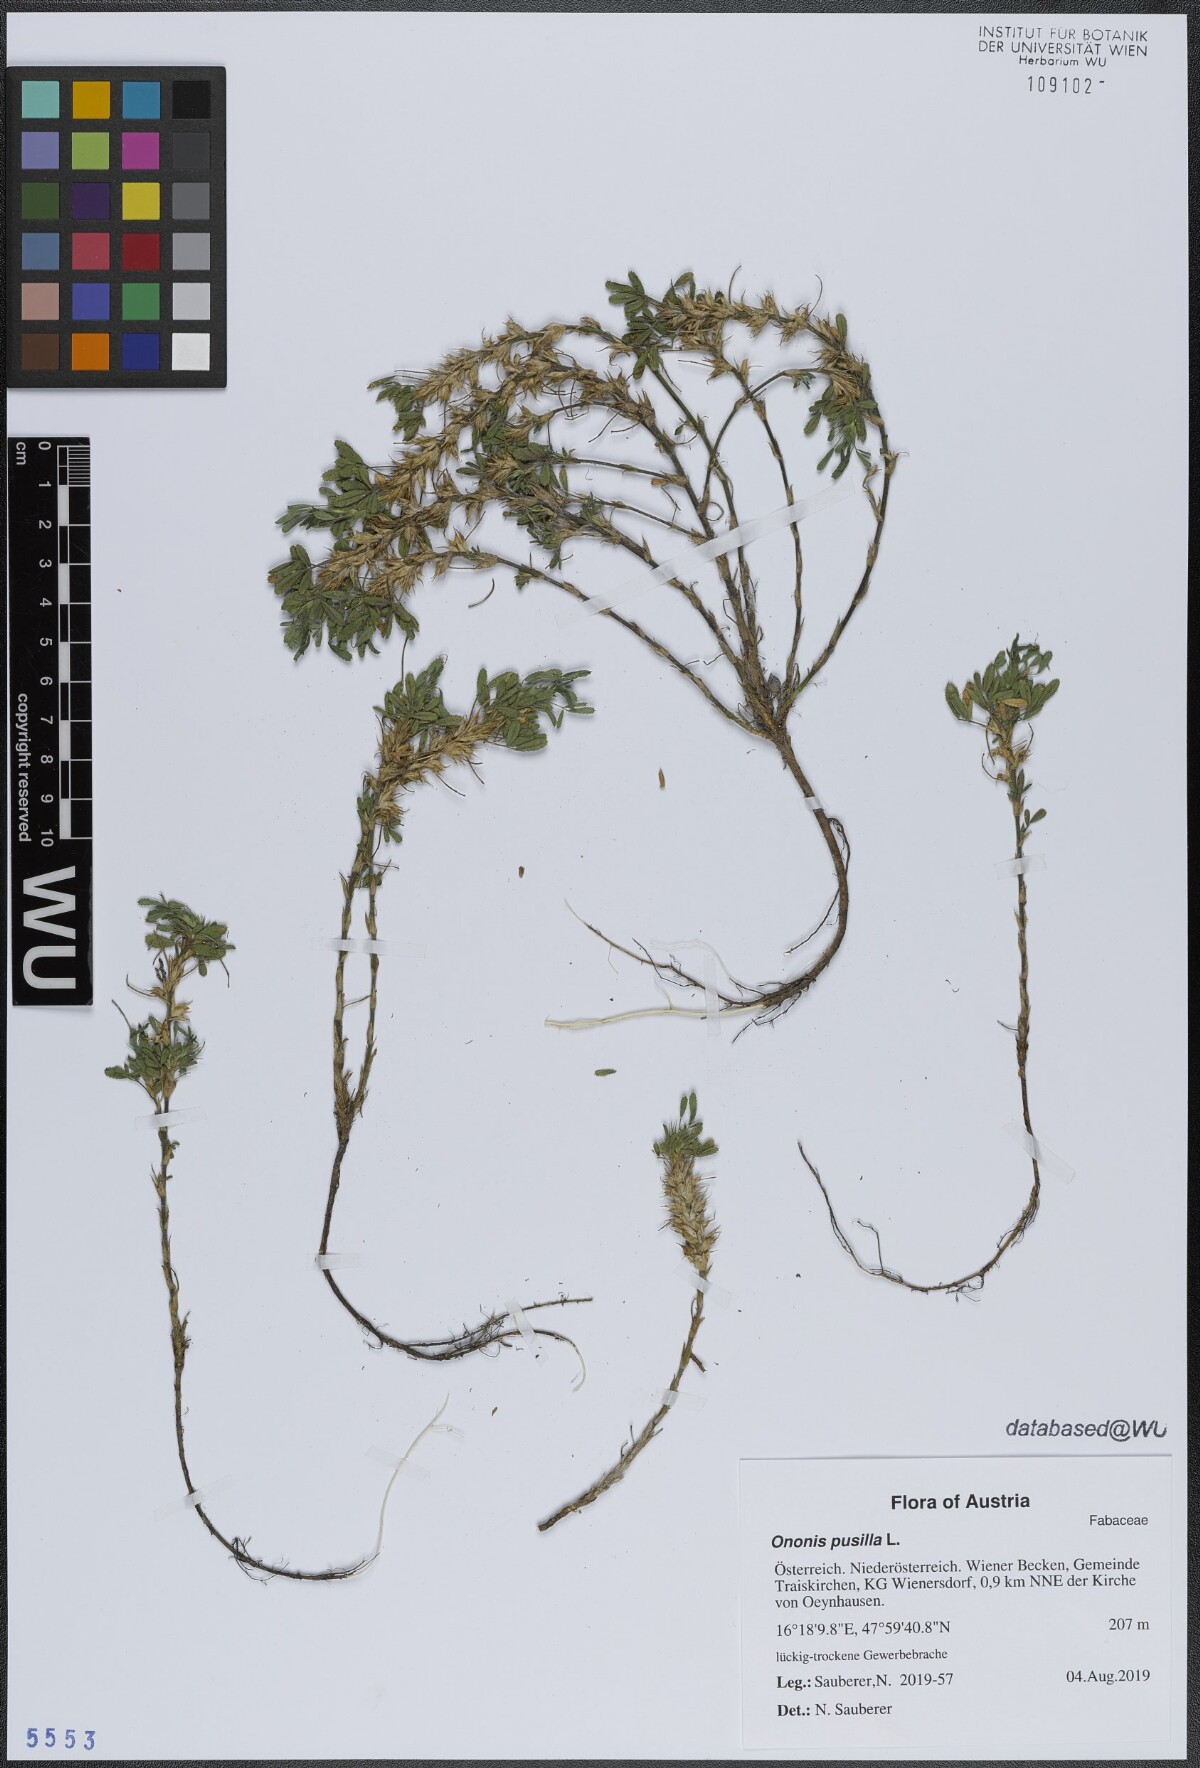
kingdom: Plantae
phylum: Tracheophyta
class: Magnoliopsida
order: Fabales
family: Fabaceae
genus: Ononis
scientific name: Ononis pusilla
